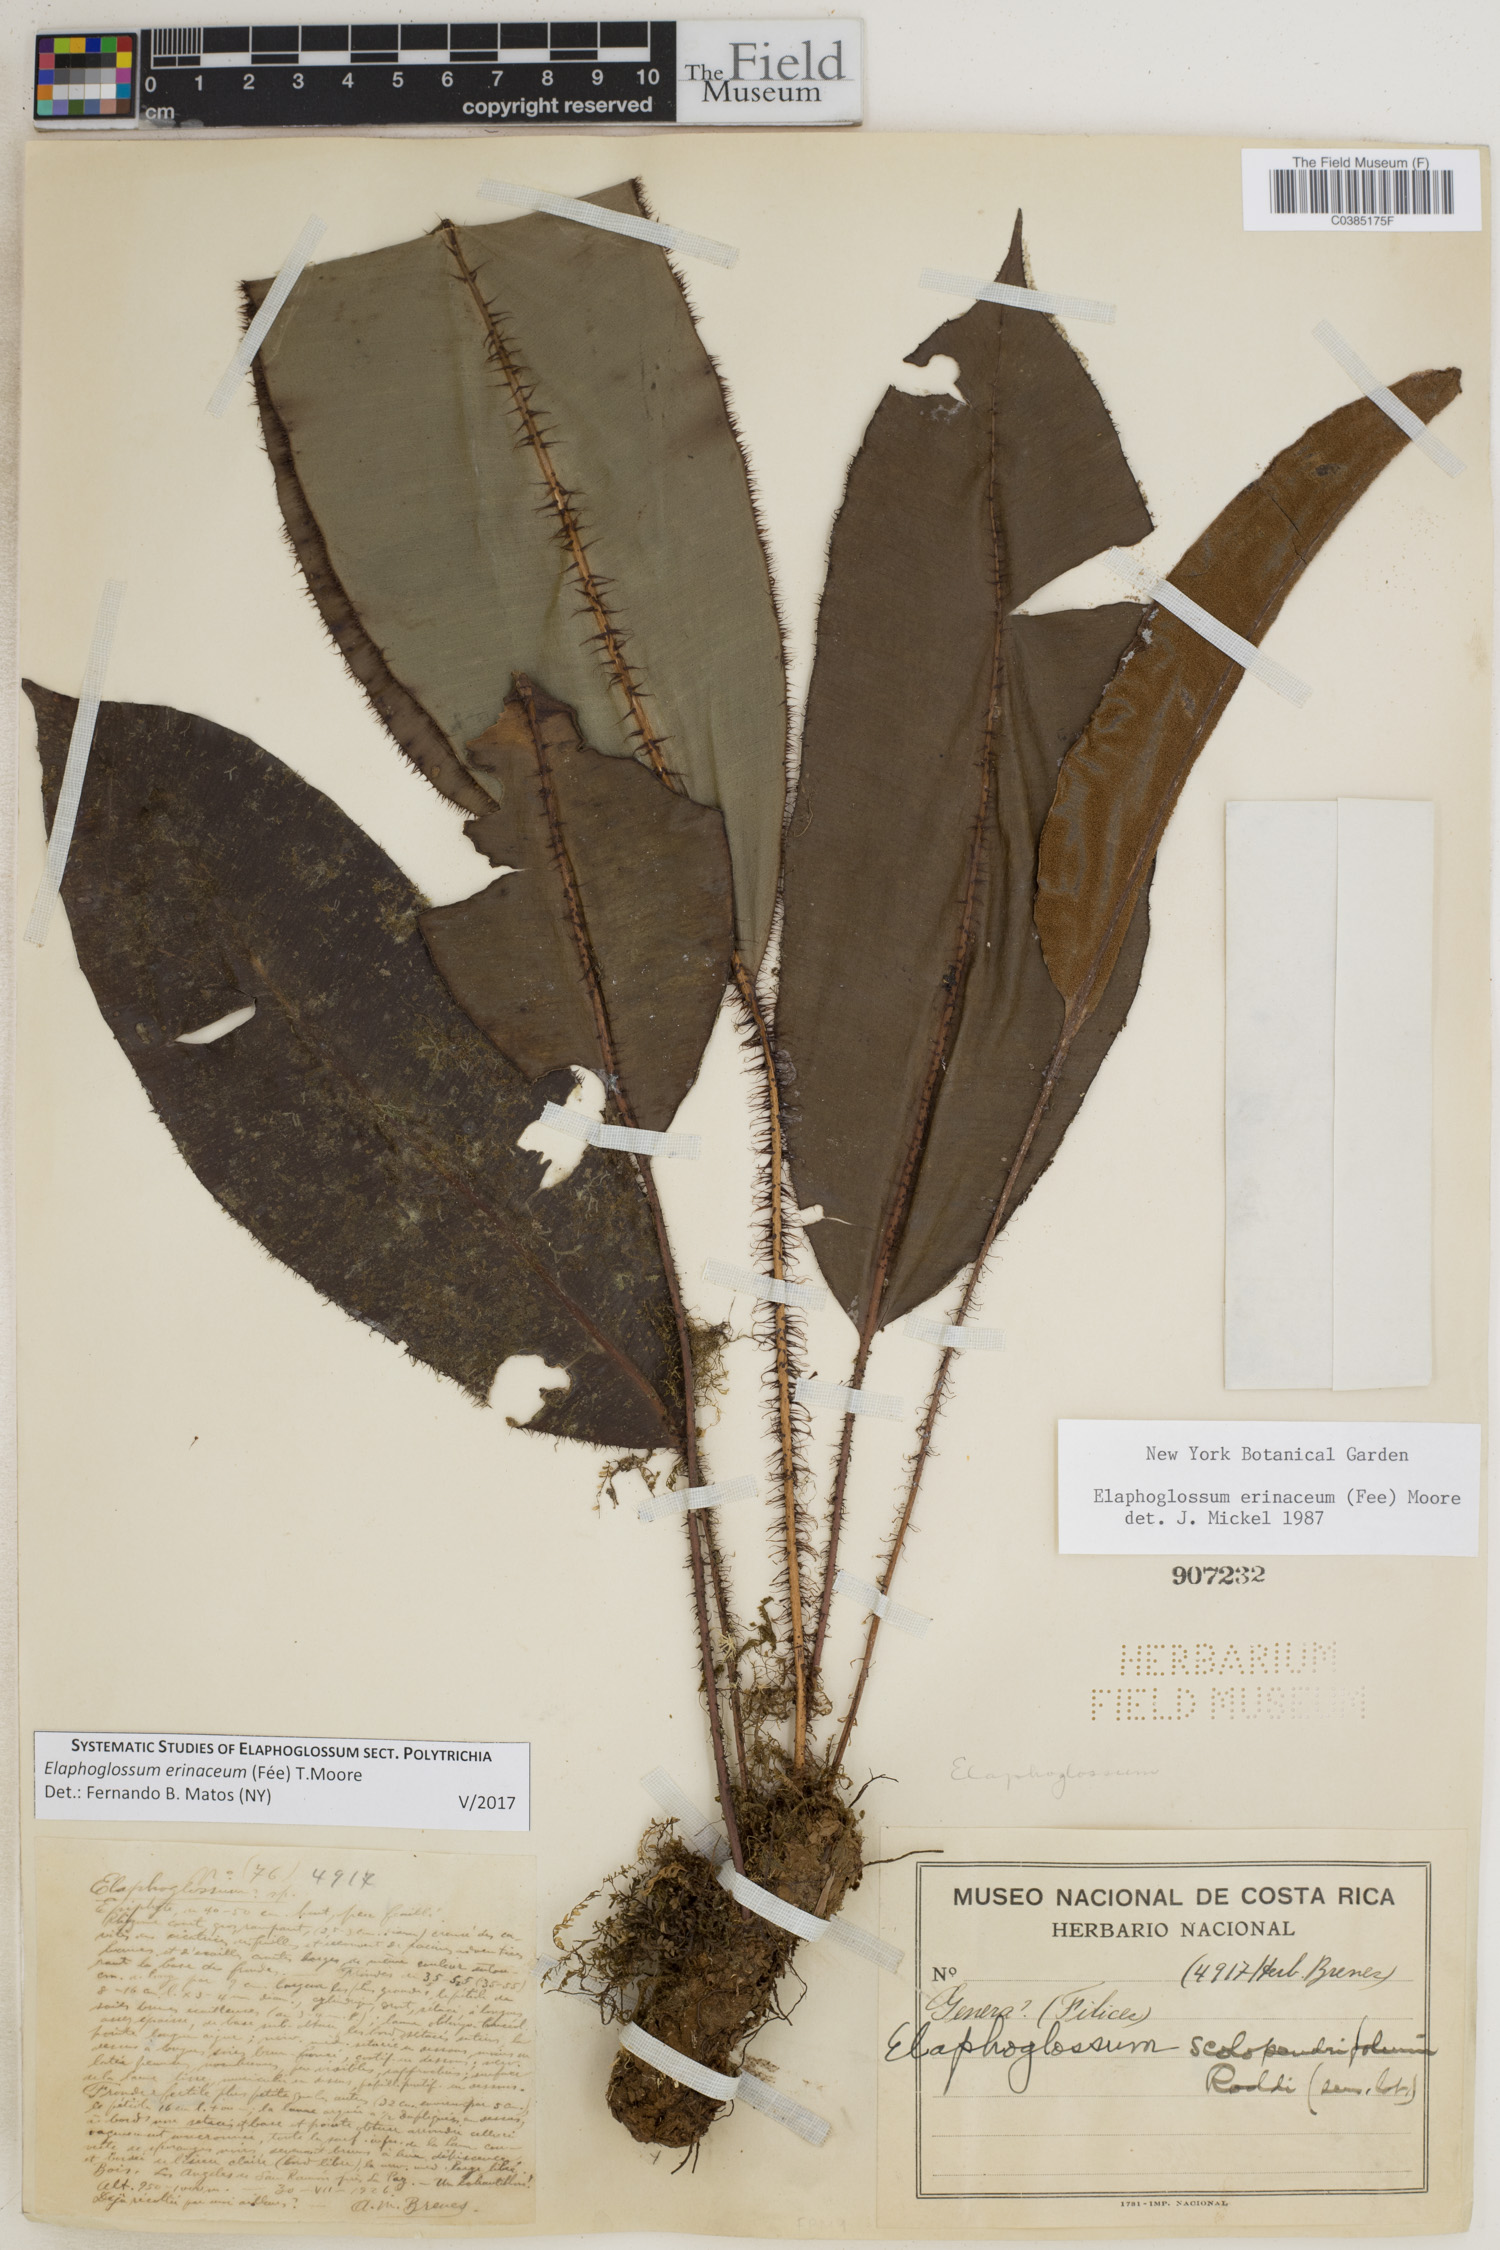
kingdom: Plantae
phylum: Tracheophyta
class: Polypodiopsida
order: Polypodiales
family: Dryopteridaceae
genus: Elaphoglossum
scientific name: Elaphoglossum erinaceum
